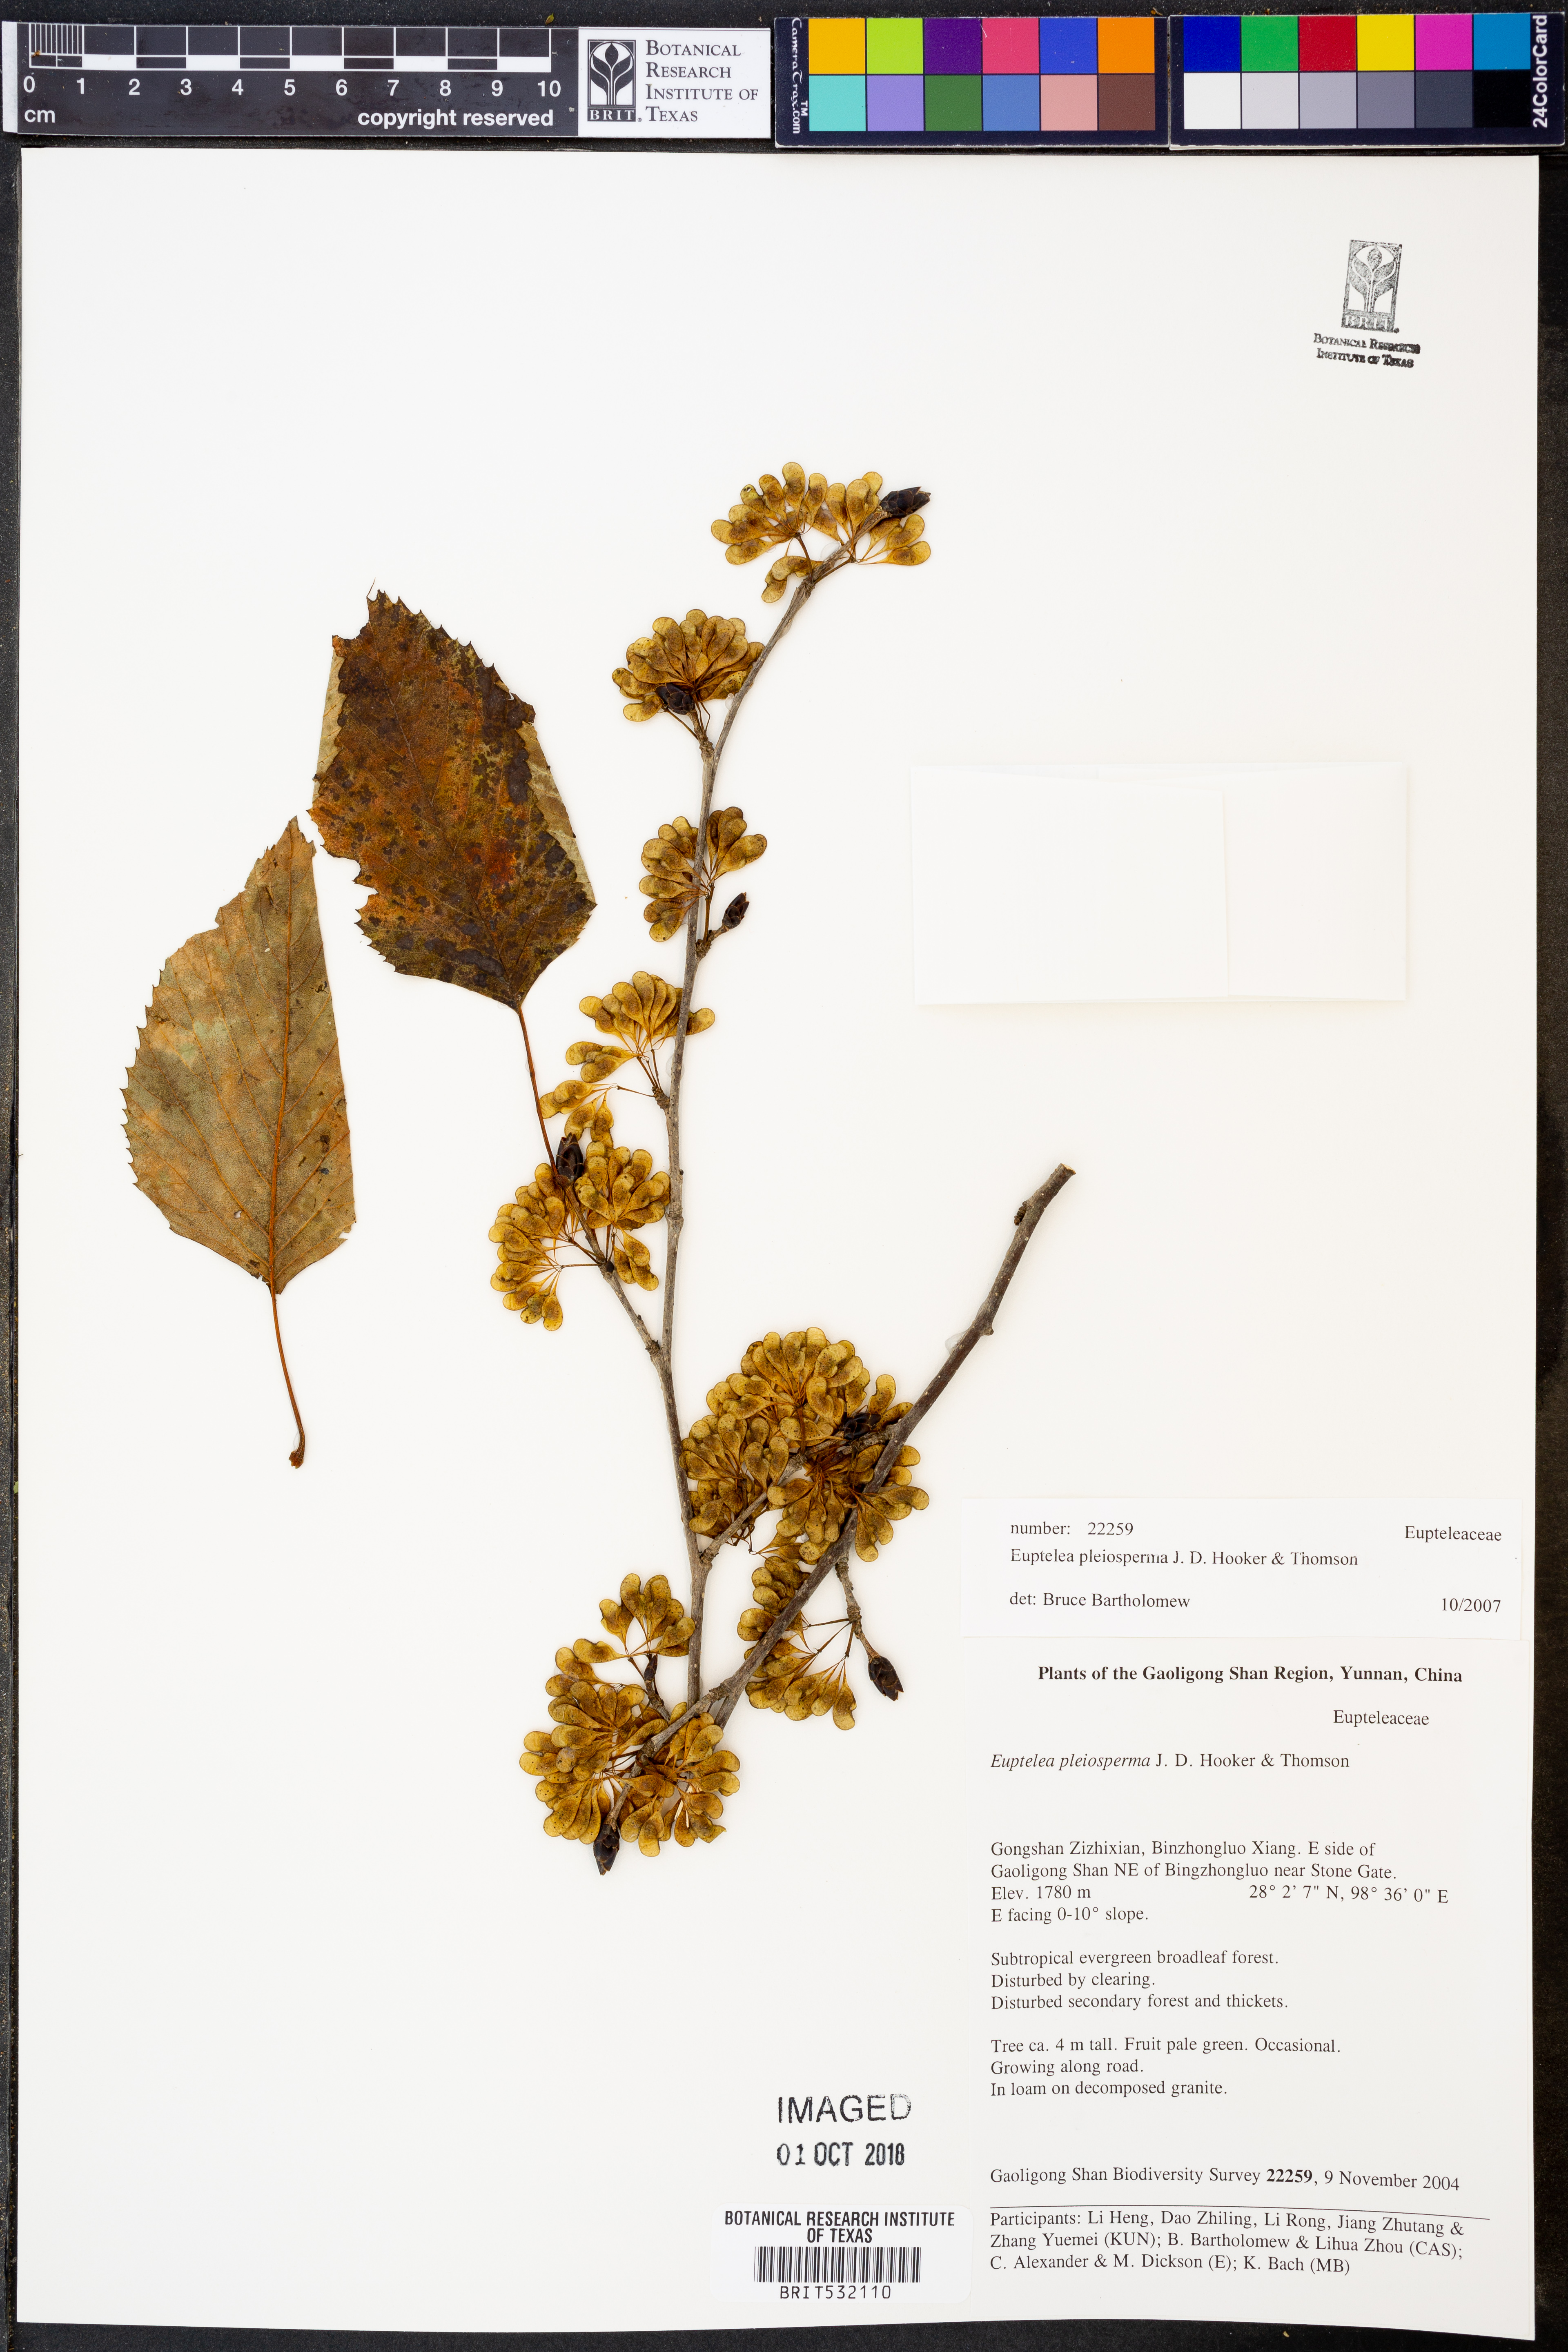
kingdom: Plantae
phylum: Tracheophyta
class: Magnoliopsida
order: Ranunculales
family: Eupteleaceae
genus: Euptelea
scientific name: Euptelea pleiosperma
